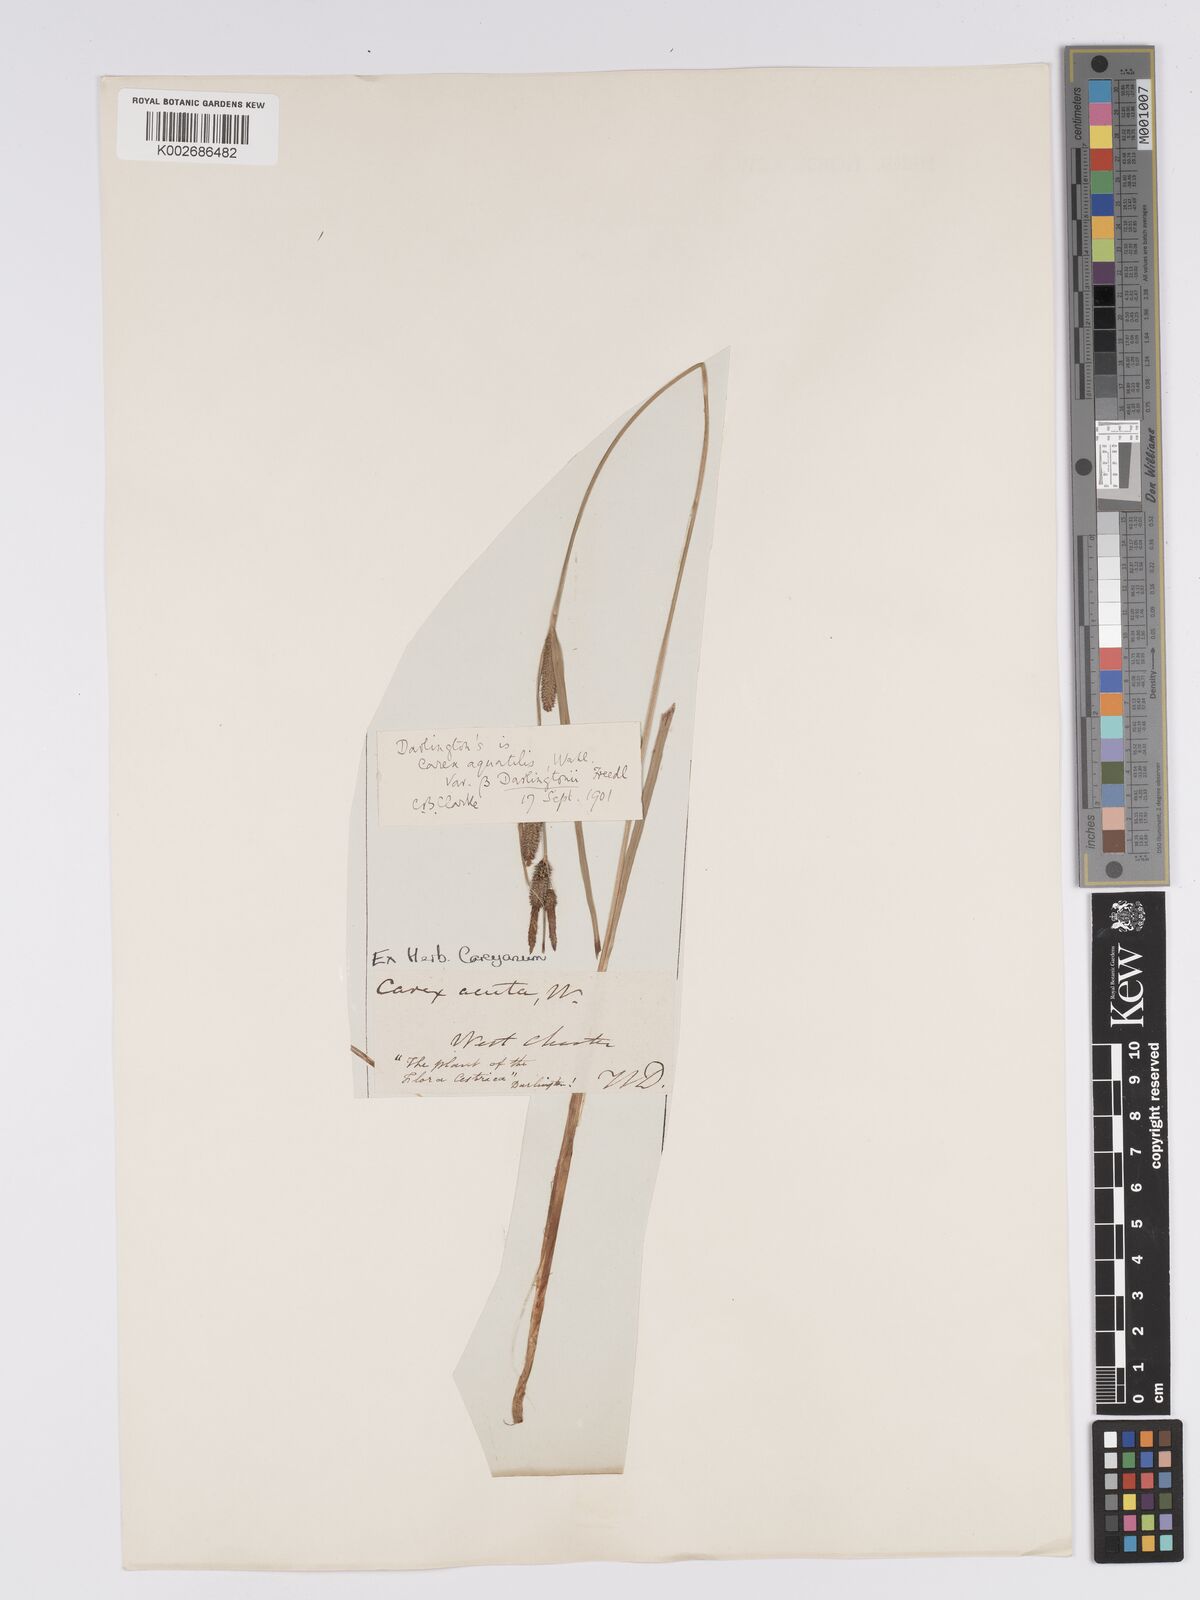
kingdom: Plantae
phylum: Tracheophyta
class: Liliopsida
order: Poales
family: Cyperaceae
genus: Carex
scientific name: Carex aquatilis
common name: Water sedge
